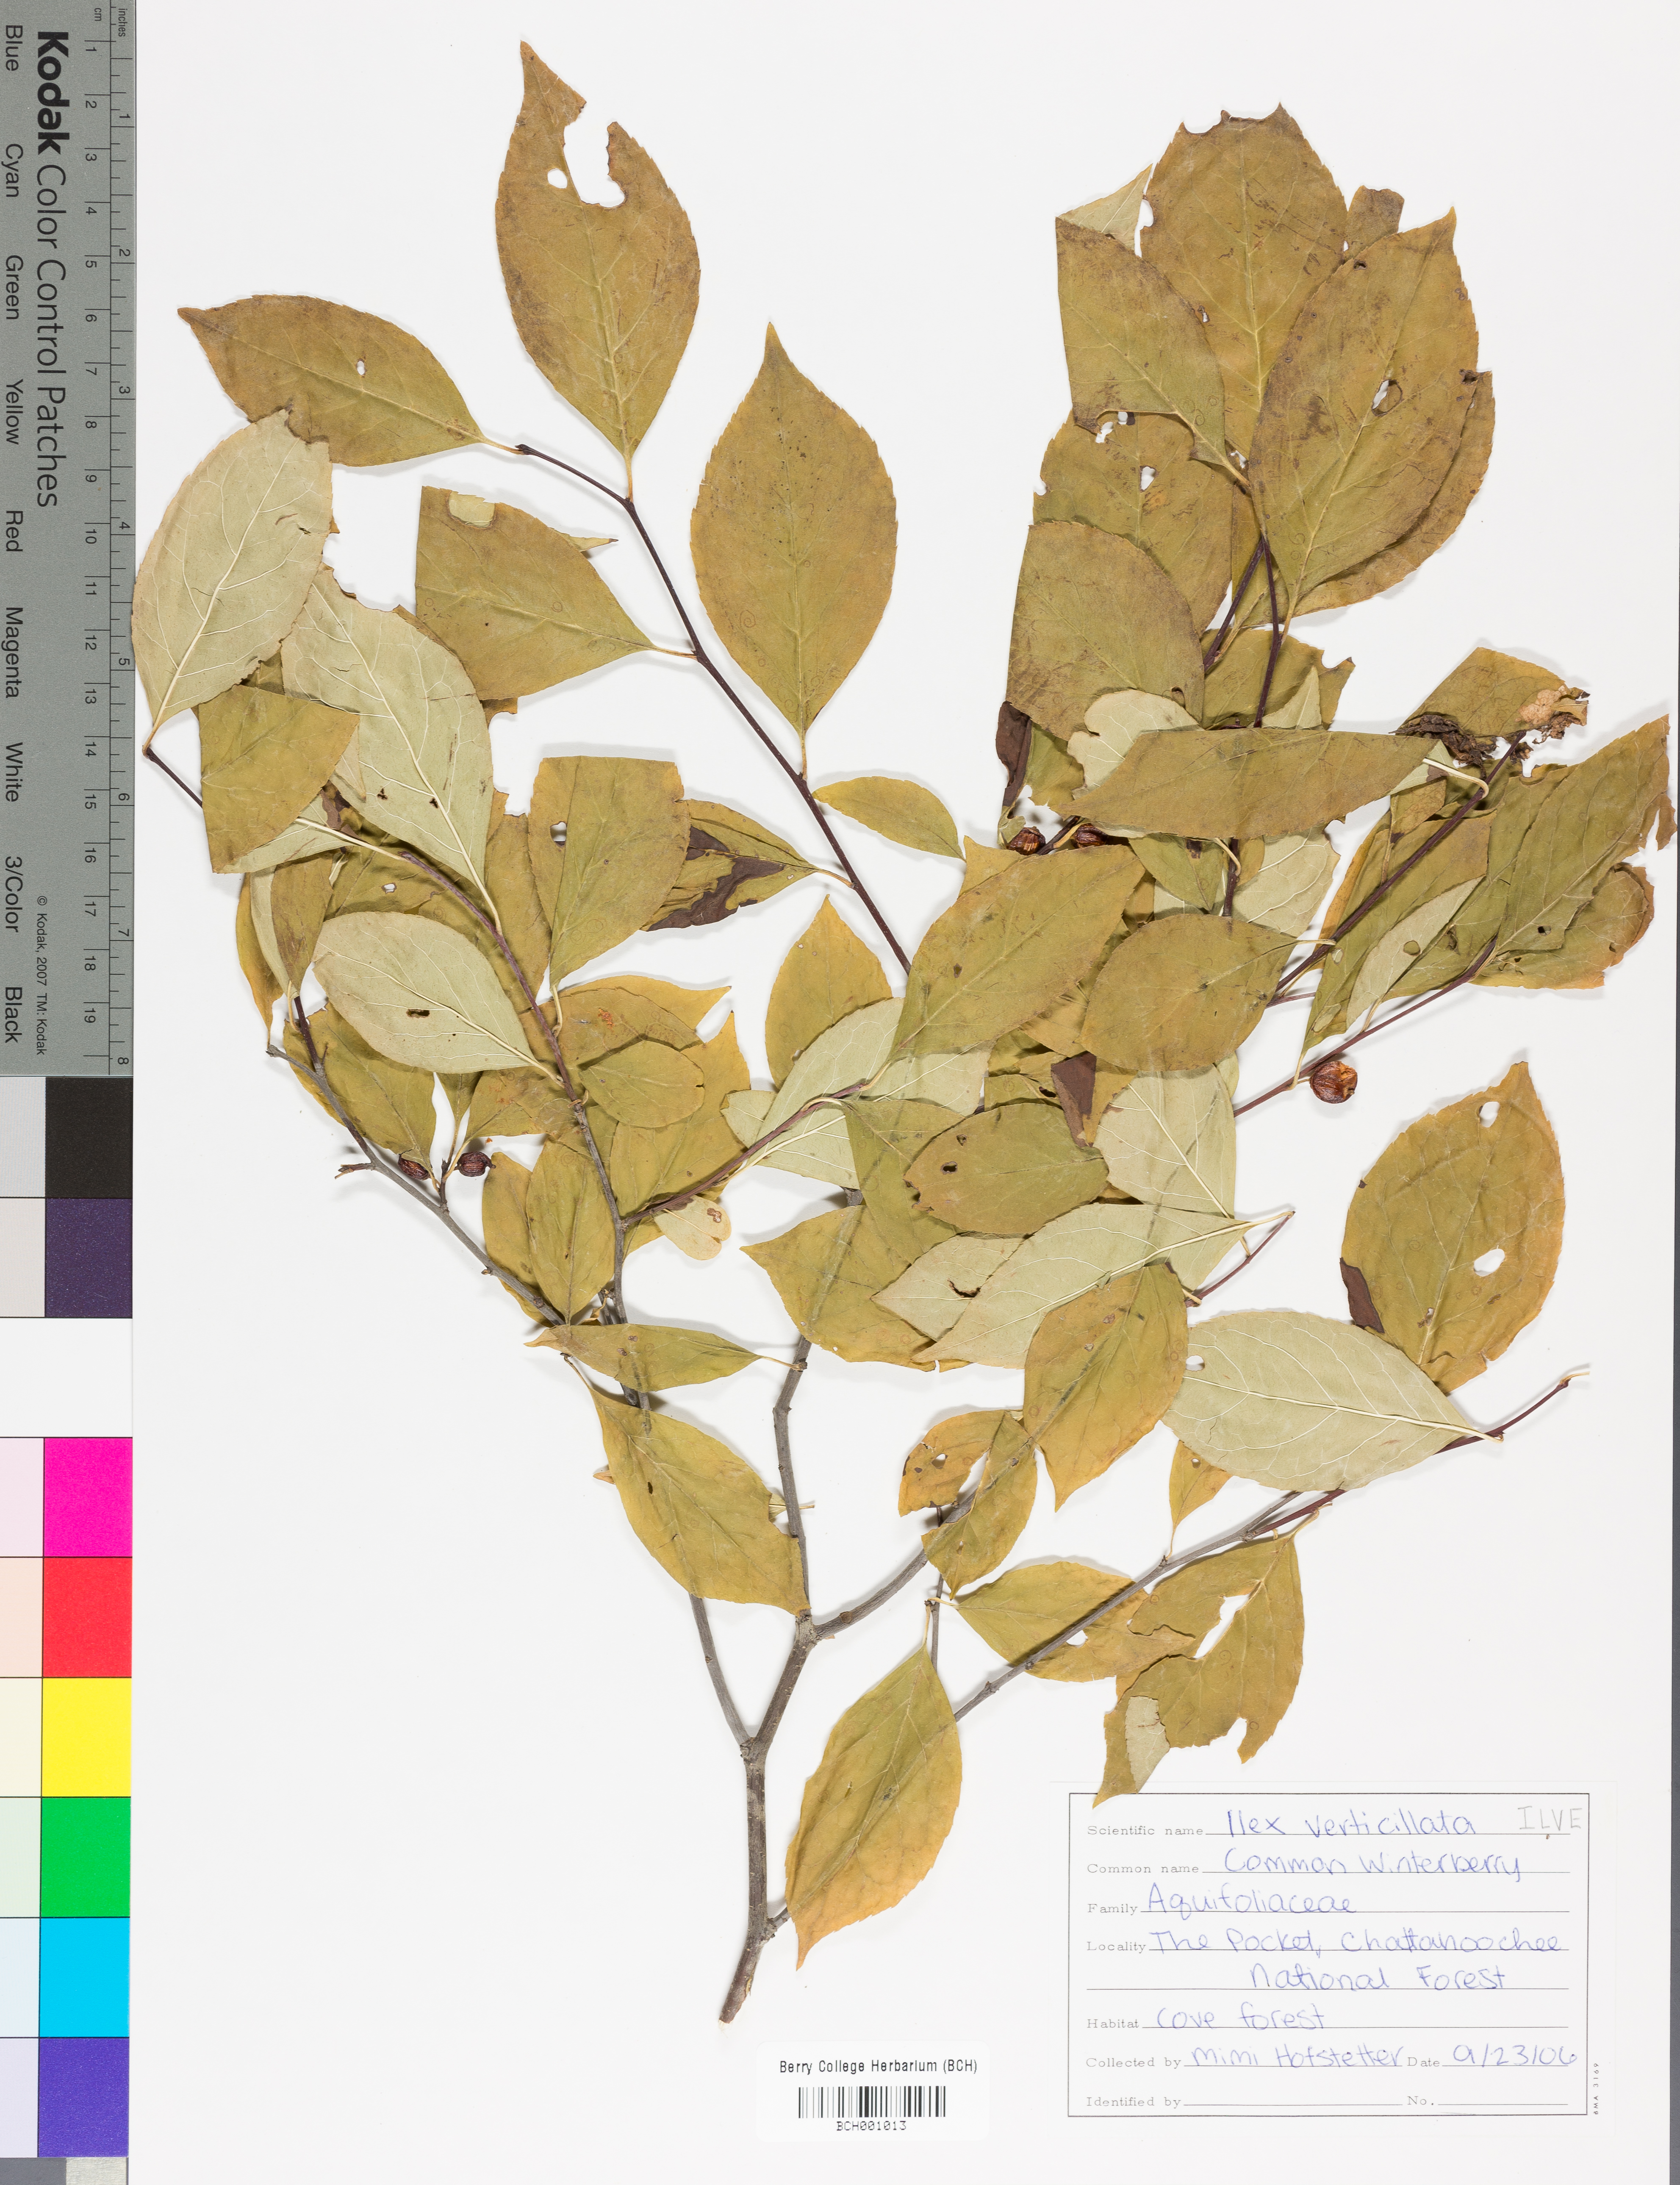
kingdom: Plantae
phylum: Tracheophyta
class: Magnoliopsida
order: Aquifoliales
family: Aquifoliaceae
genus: Ilex
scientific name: Ilex verticillata
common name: Virginia winterberry
